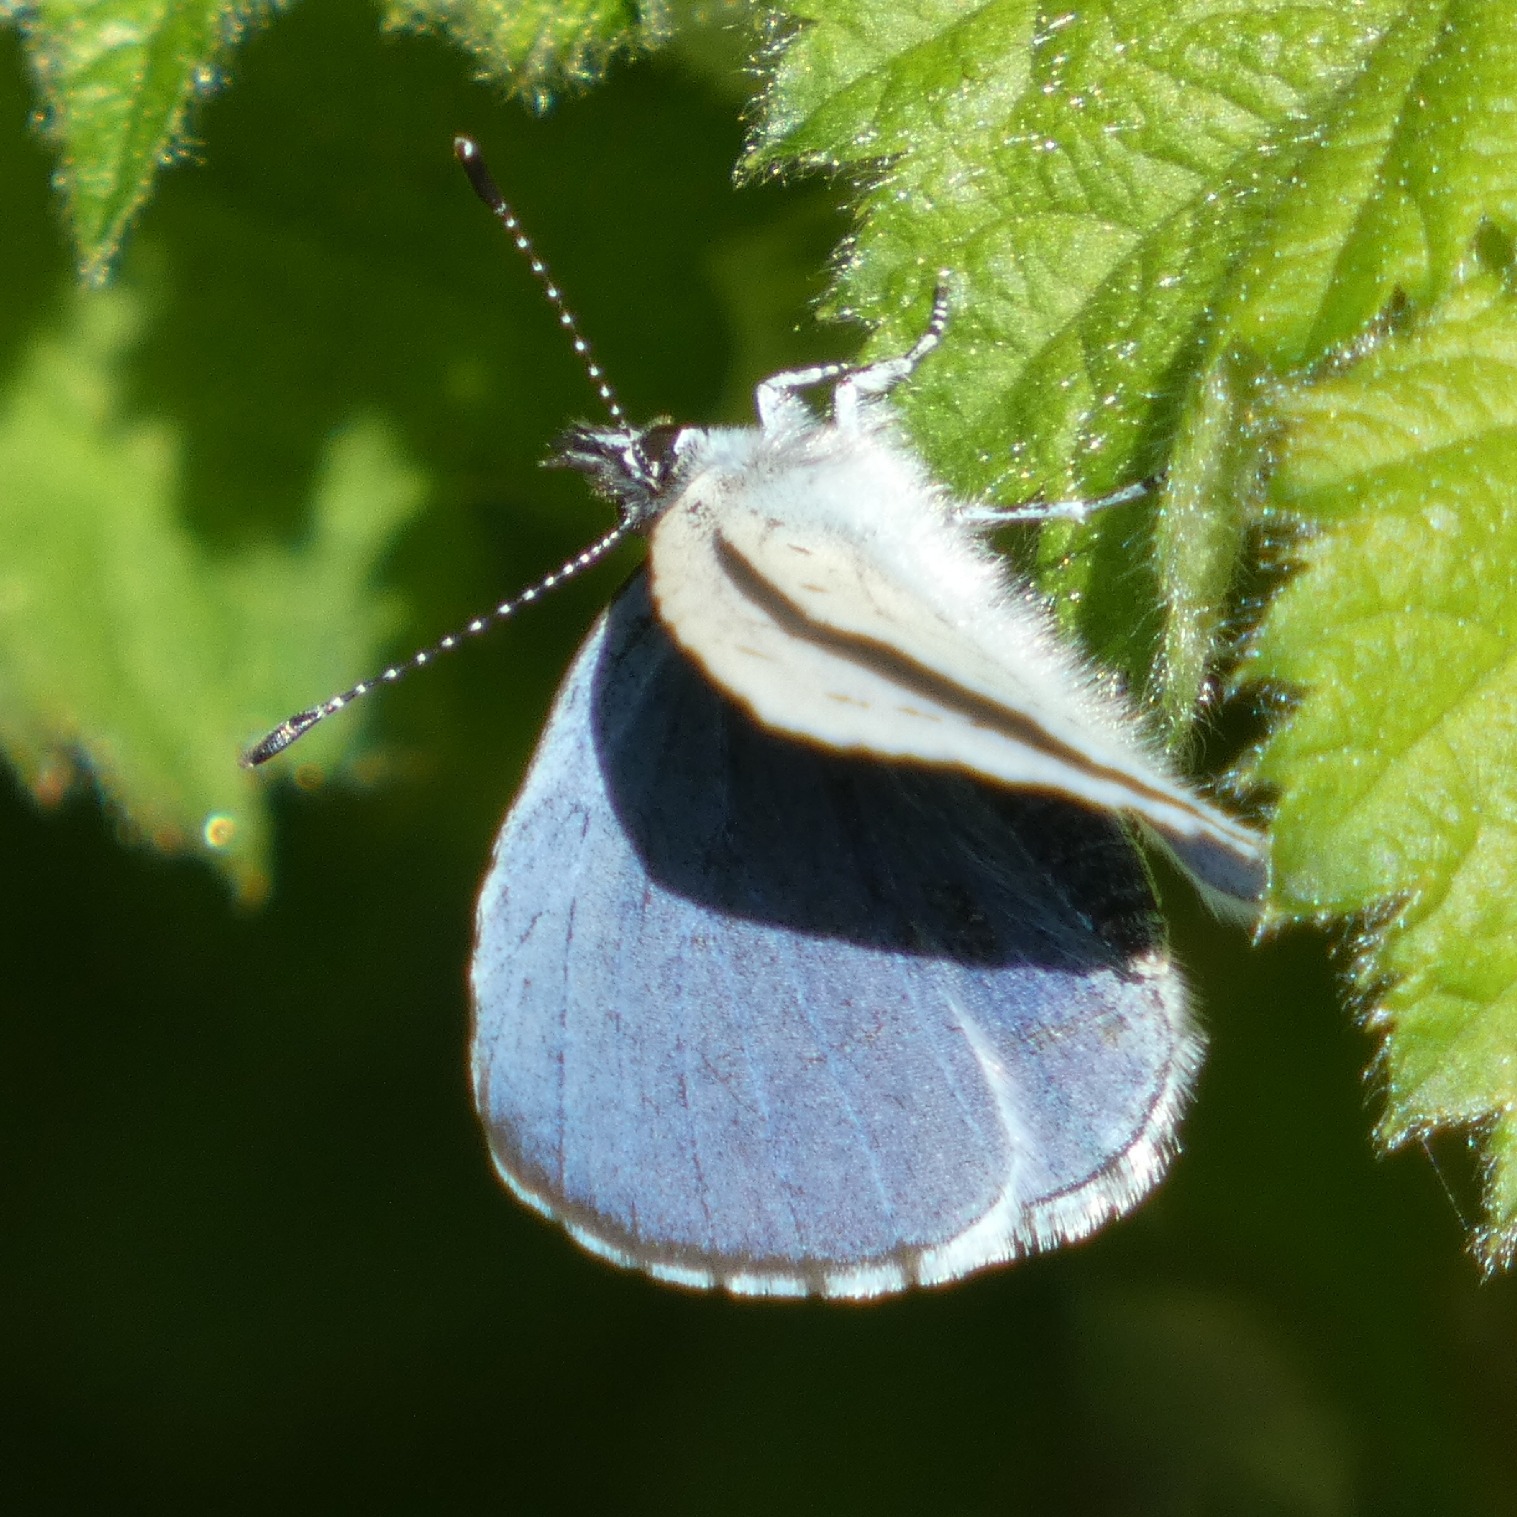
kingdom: Animalia
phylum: Arthropoda
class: Insecta
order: Lepidoptera
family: Lycaenidae
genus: Celastrina
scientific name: Celastrina argiolus
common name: Skovblåfugl
